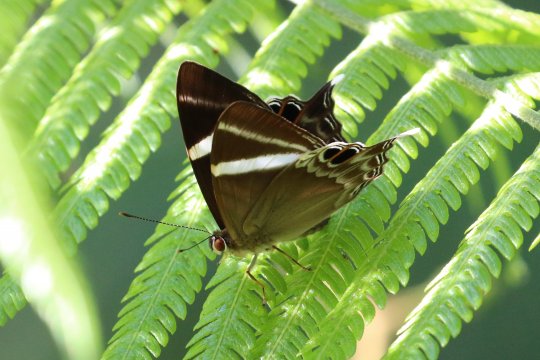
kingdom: Animalia
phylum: Arthropoda
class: Insecta
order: Lepidoptera
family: Lycaenidae
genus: Abisara
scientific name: Abisara neophron
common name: Tailed Judy
